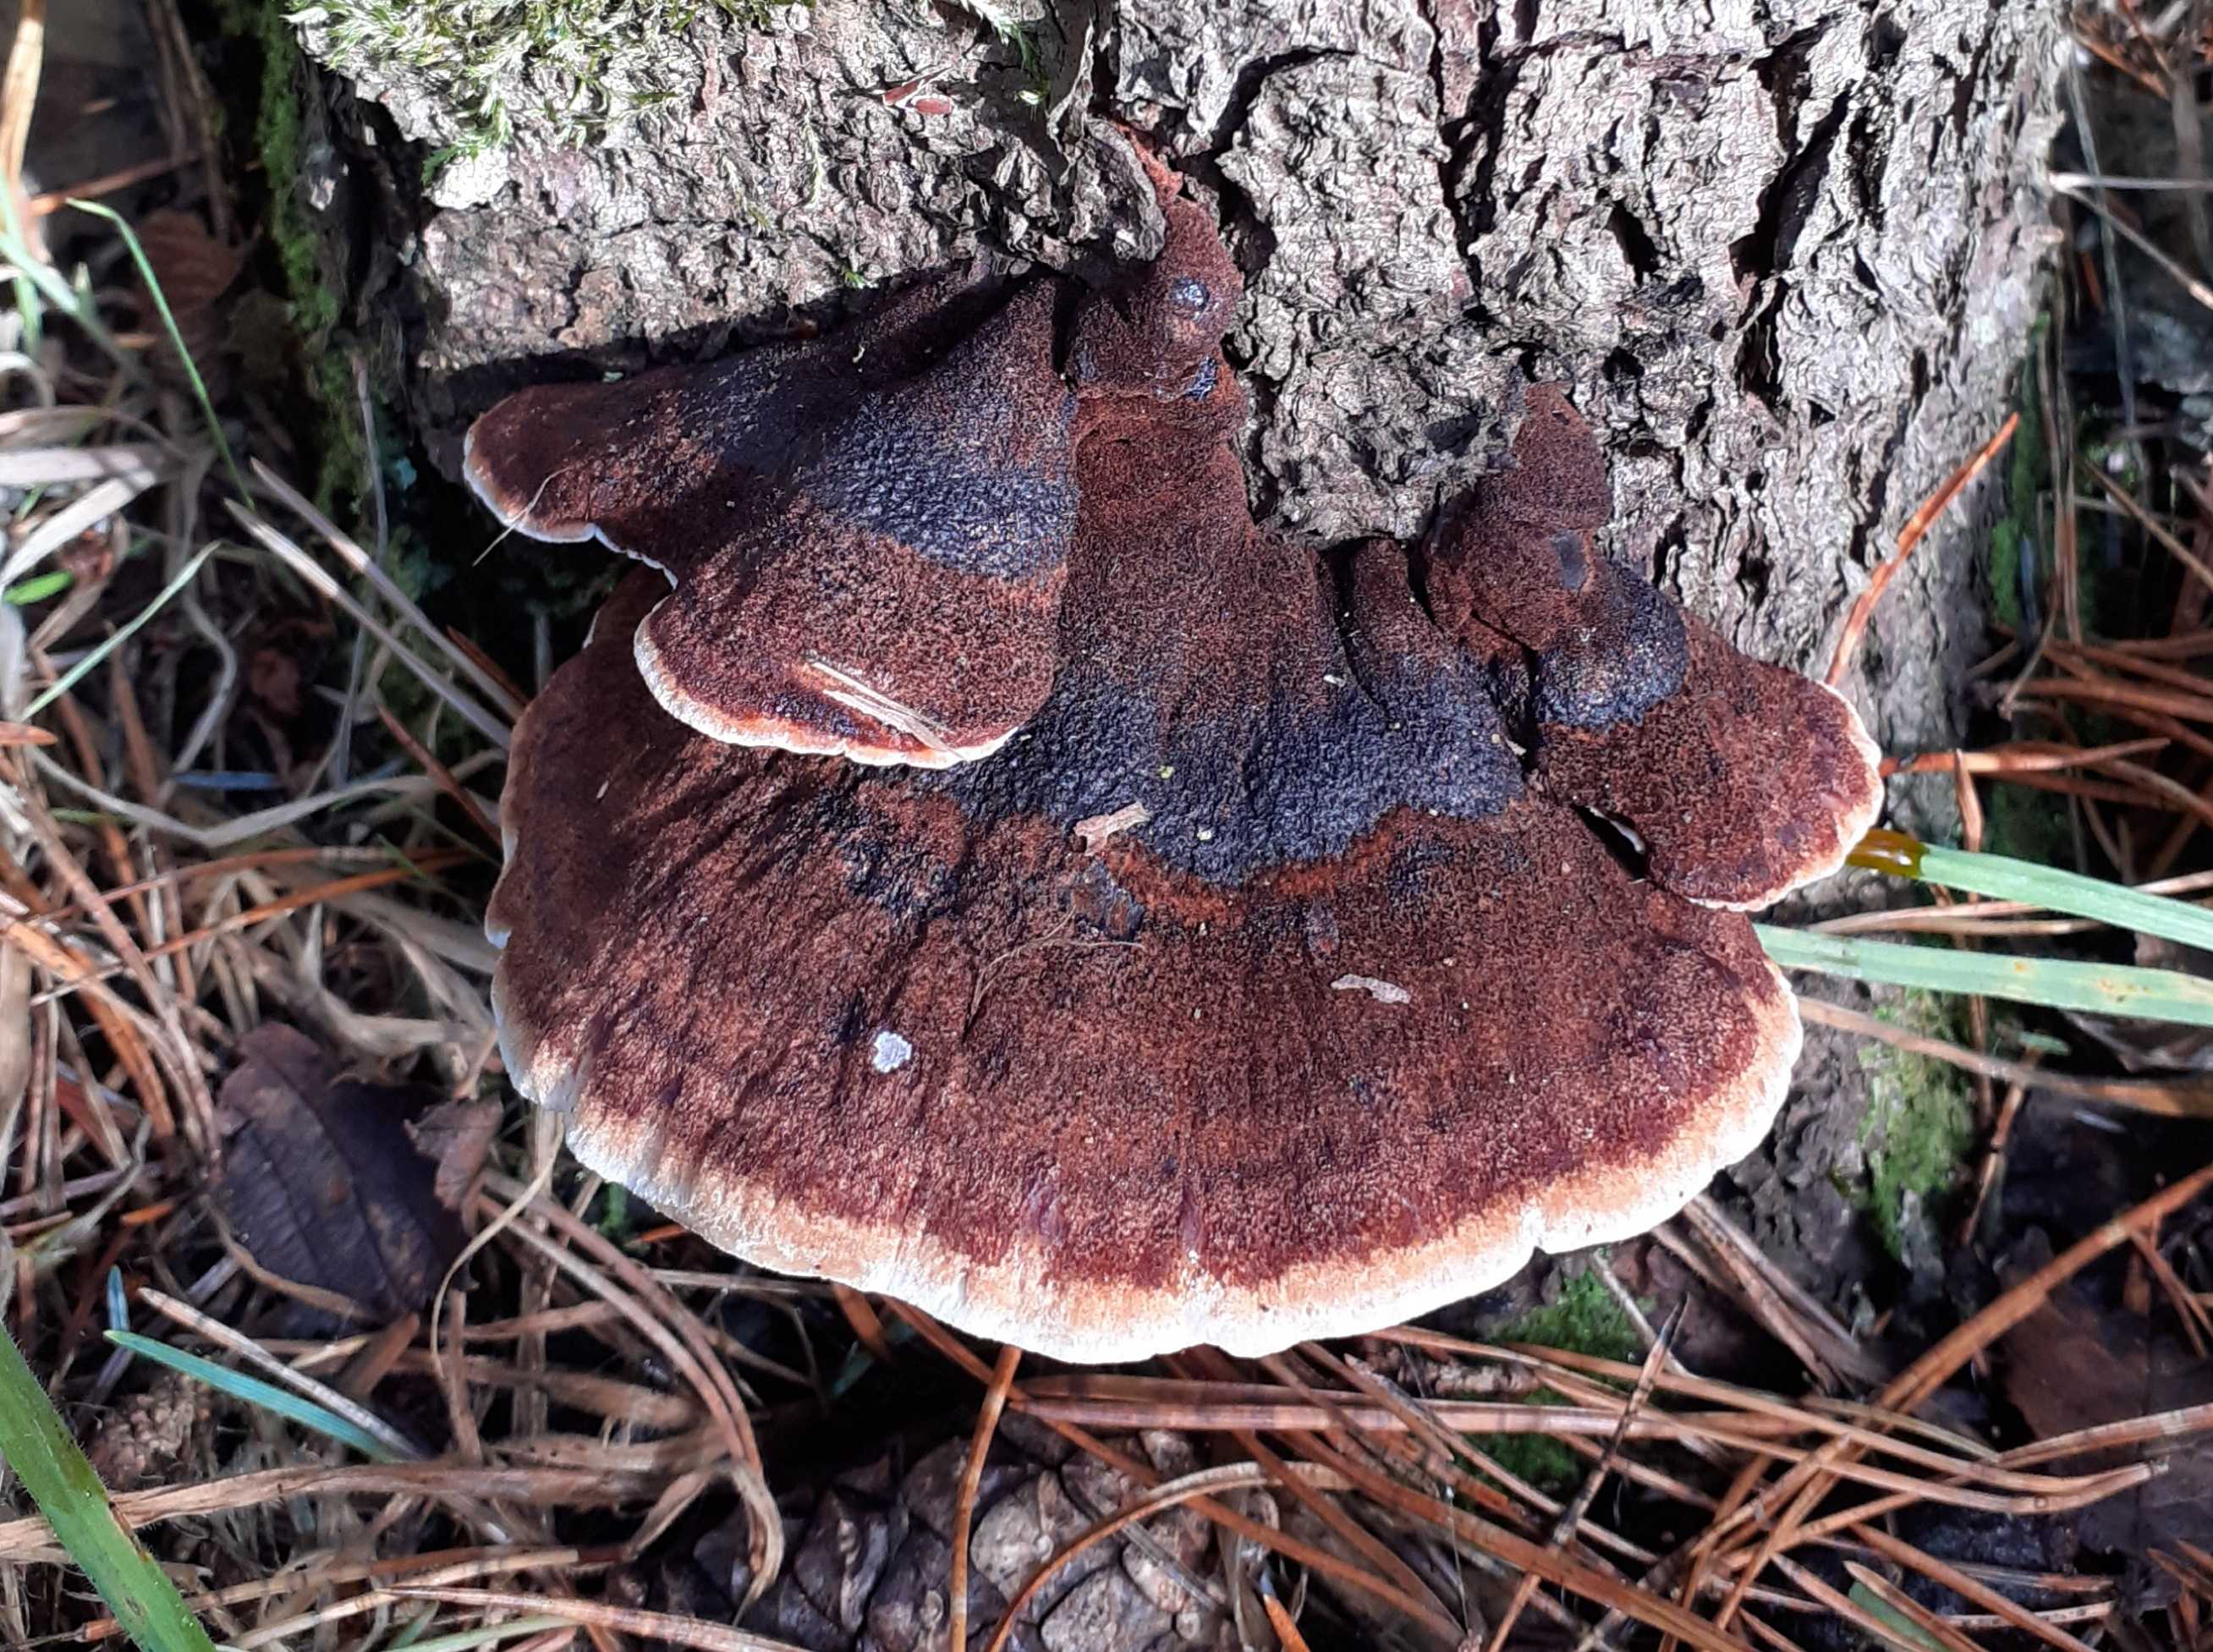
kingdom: Fungi
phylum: Basidiomycota
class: Agaricomycetes
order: Polyporales
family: Ischnodermataceae
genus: Ischnoderma
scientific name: Ischnoderma benzoinum
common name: gran-tjæreporesvamp
